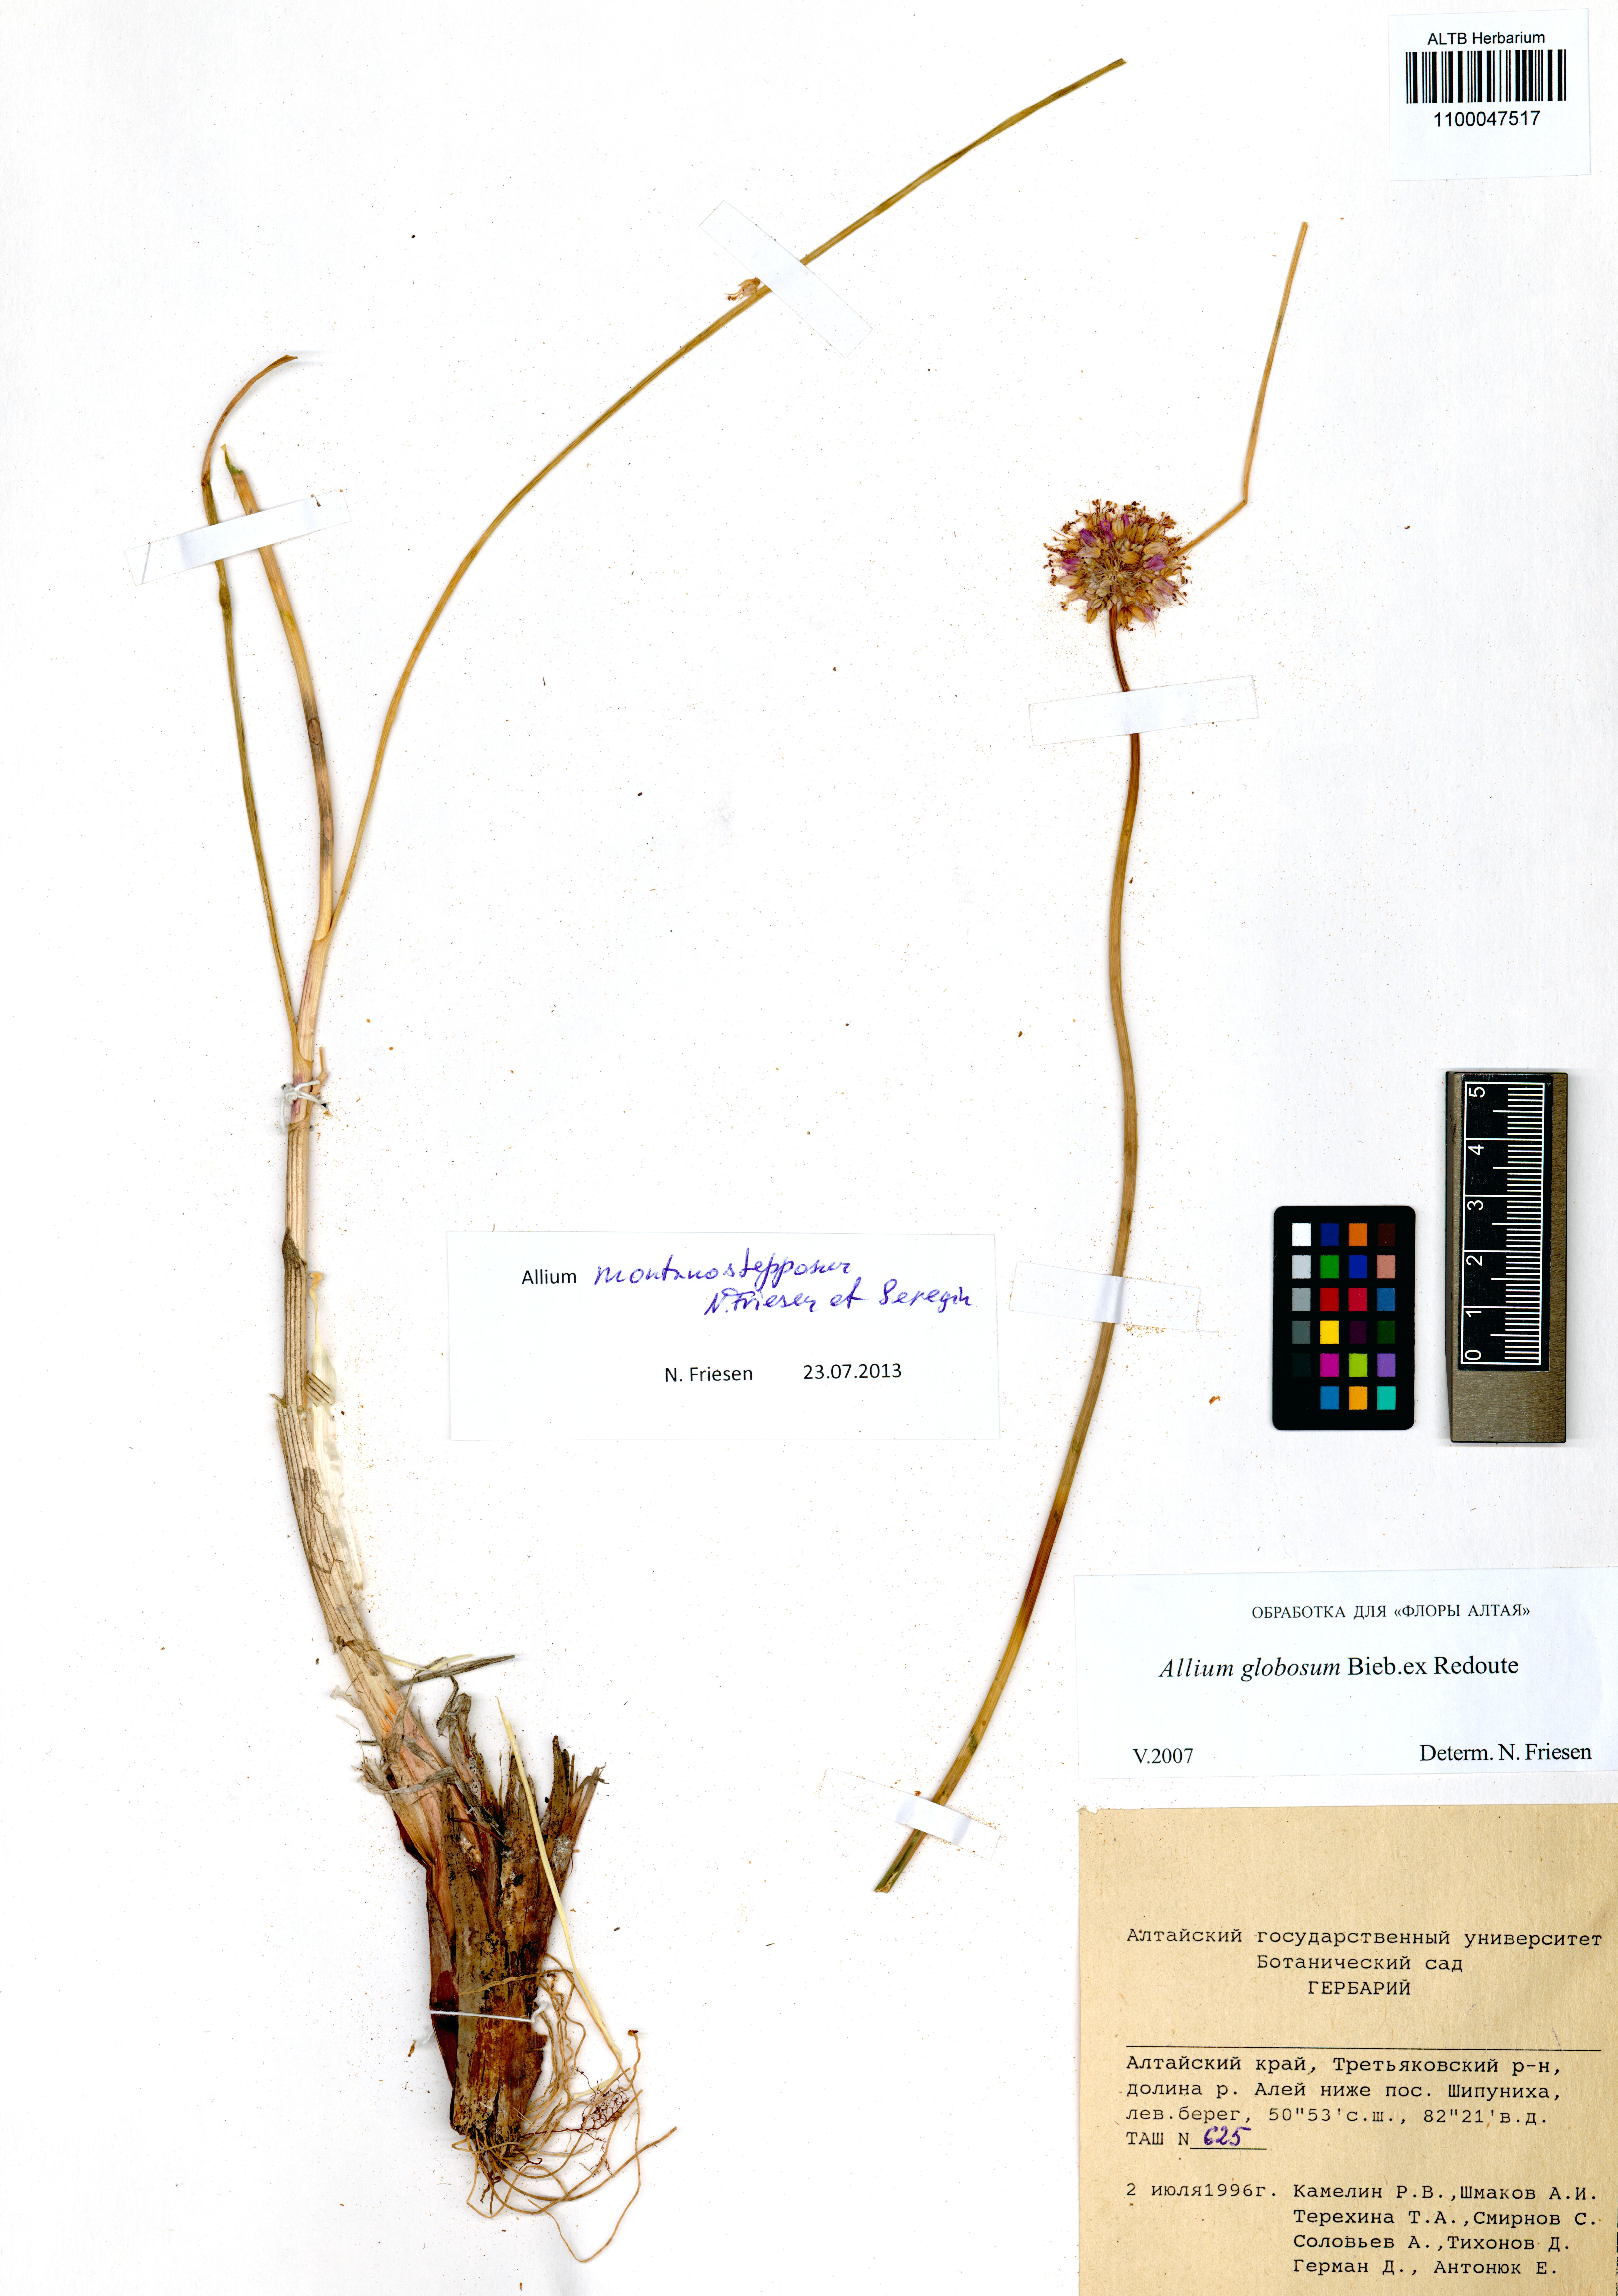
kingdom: Plantae
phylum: Tracheophyta
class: Liliopsida
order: Asparagales
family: Amaryllidaceae
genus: Allium
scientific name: Allium montanostepposum
